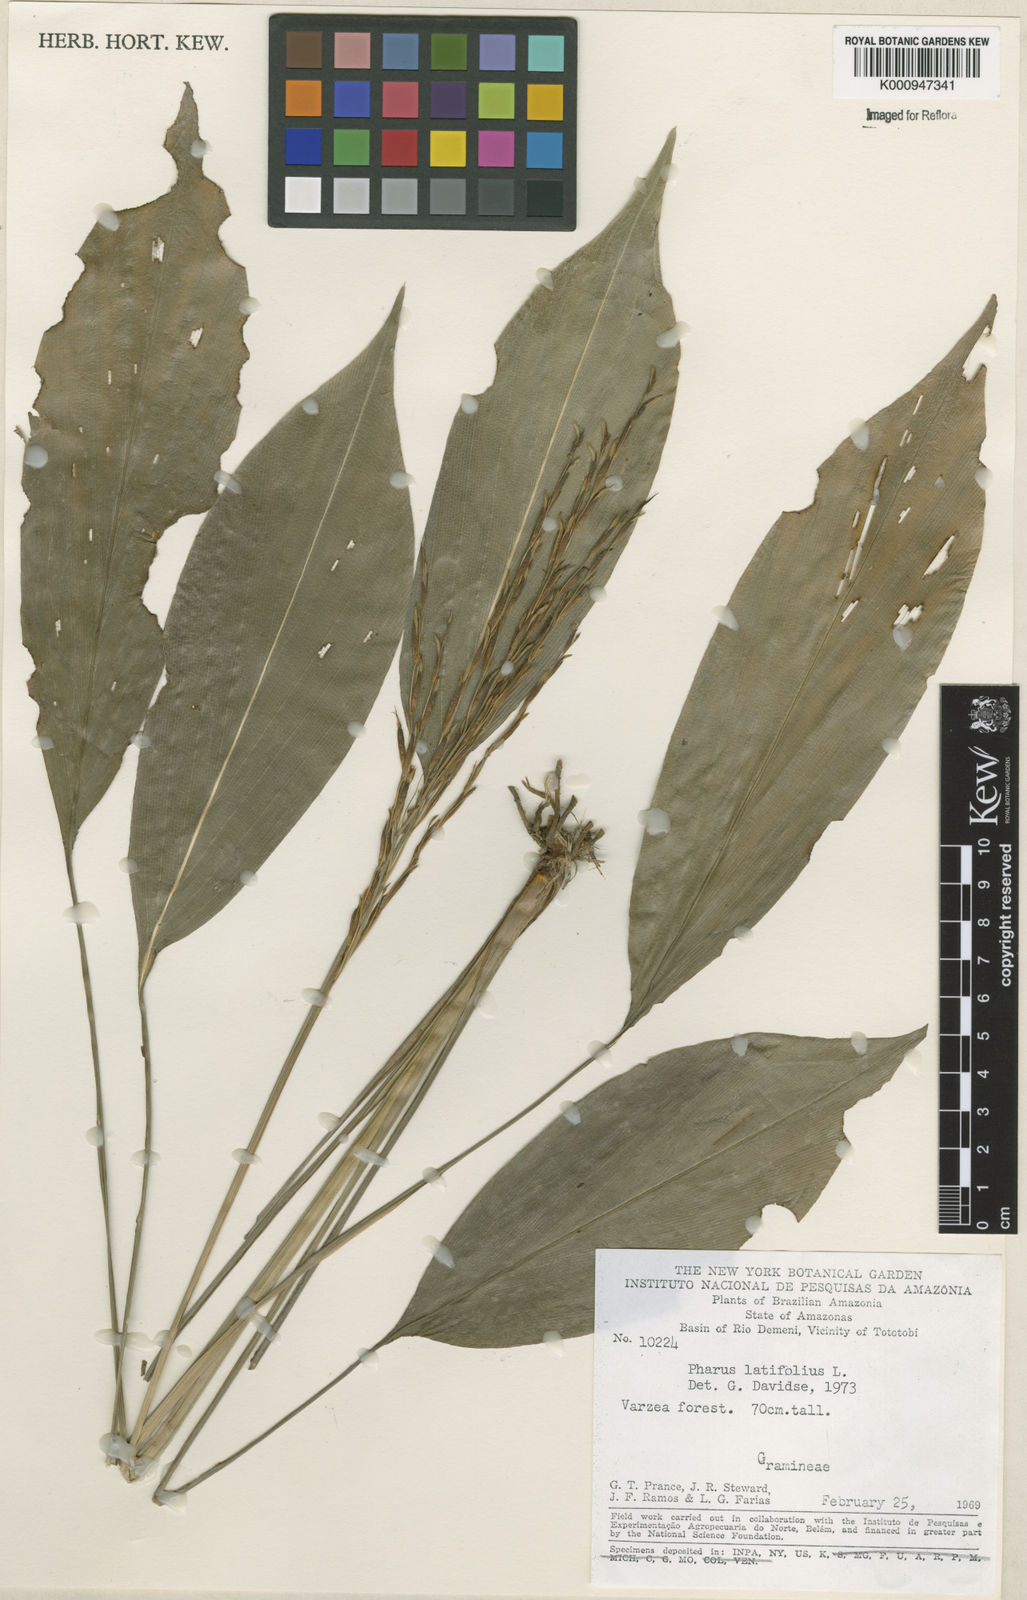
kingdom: Plantae
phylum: Tracheophyta
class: Liliopsida
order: Poales
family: Poaceae
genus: Pharus
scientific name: Pharus latifolius
